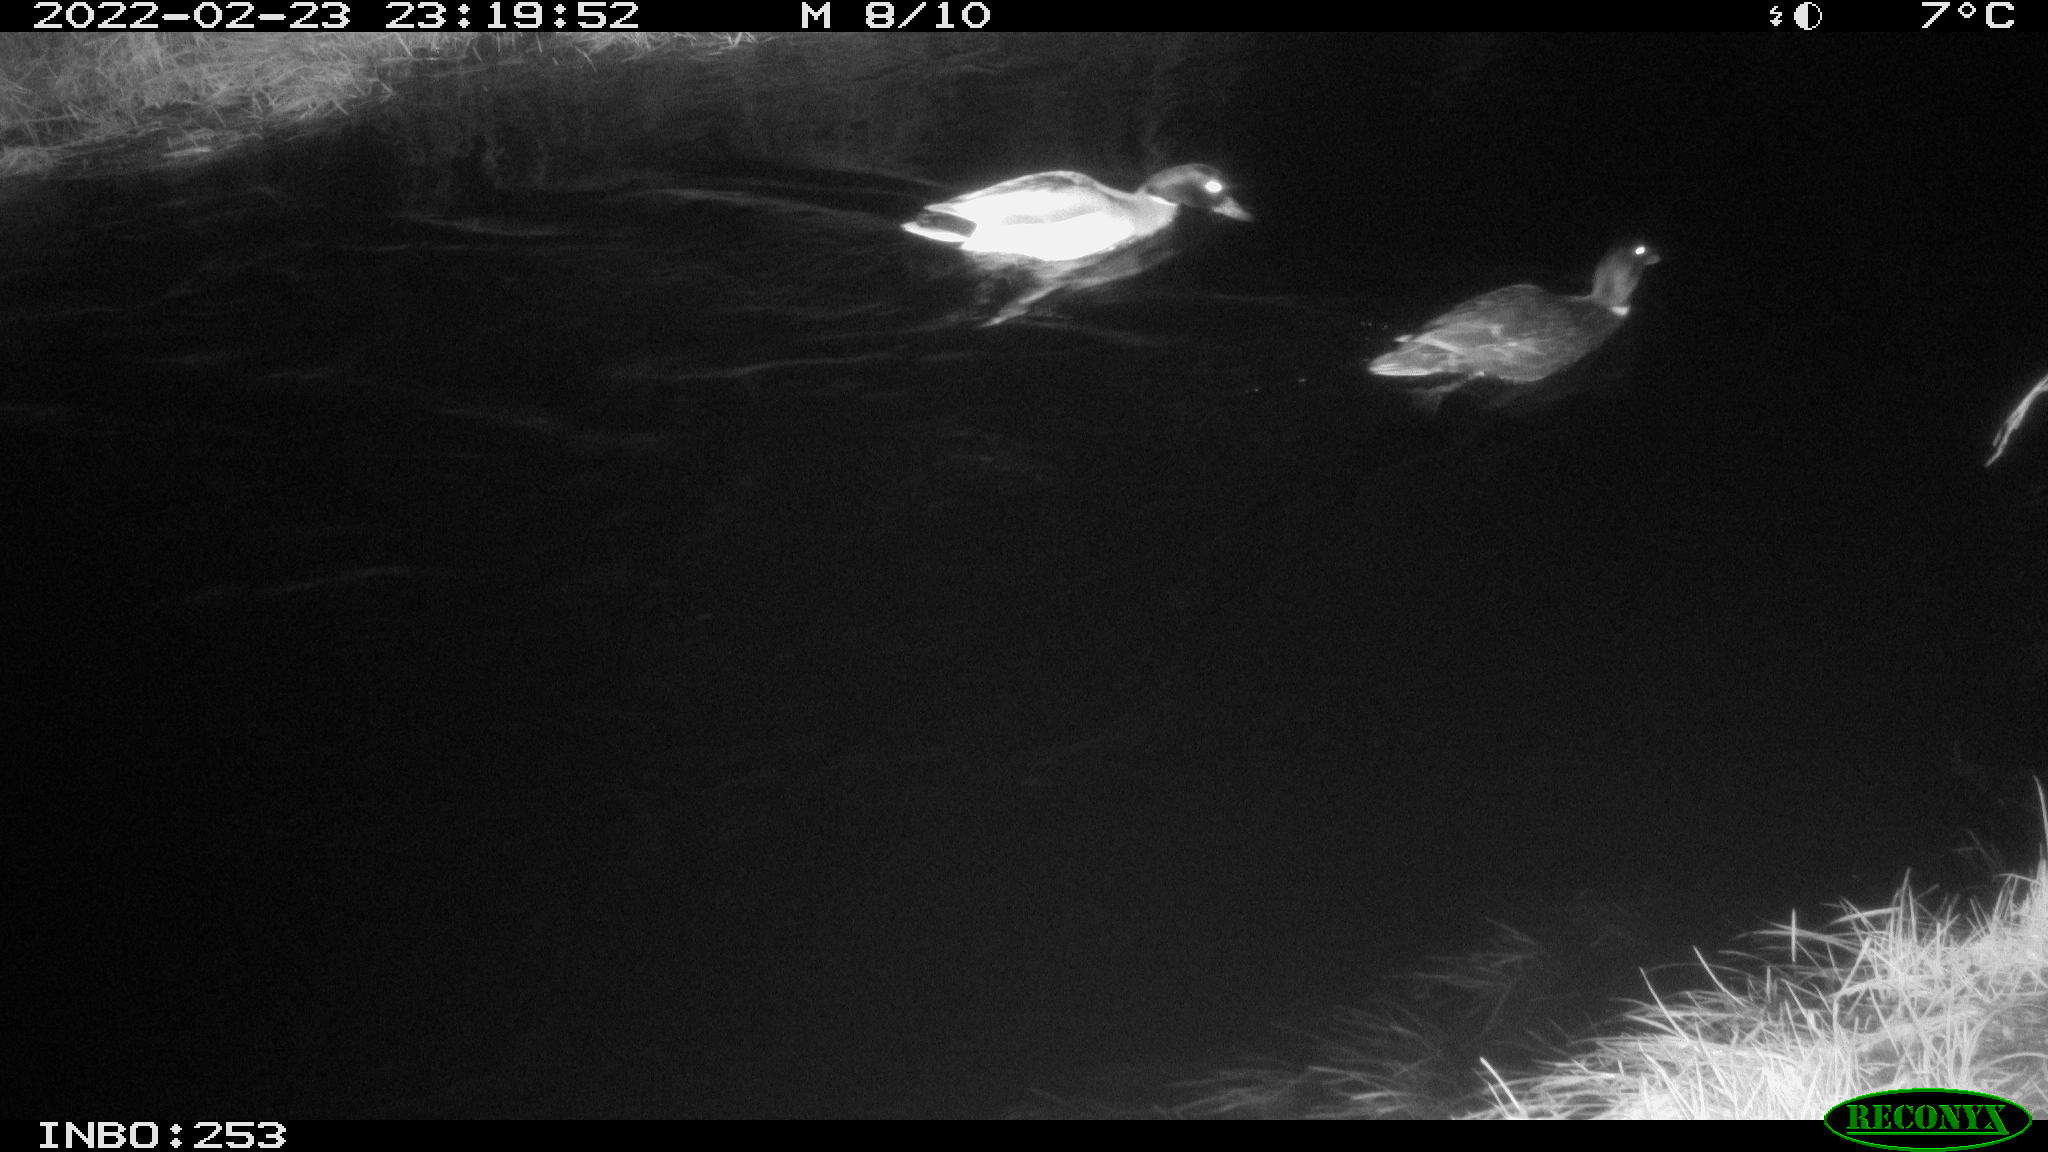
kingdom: Animalia
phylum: Chordata
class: Aves
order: Anseriformes
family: Anatidae
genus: Anas
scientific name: Anas platyrhynchos
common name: Mallard
